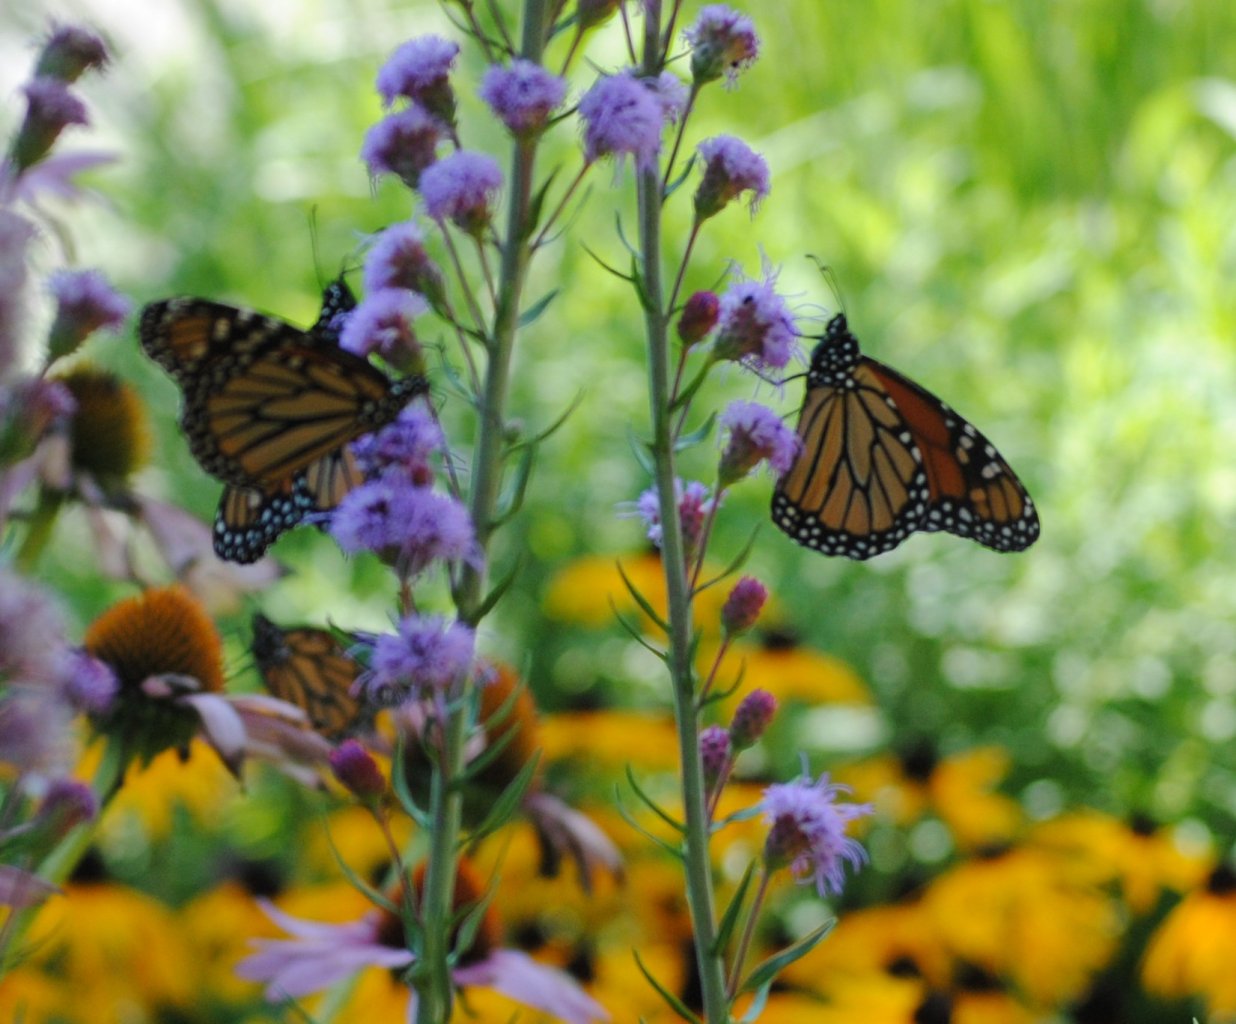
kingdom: Animalia
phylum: Arthropoda
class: Insecta
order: Lepidoptera
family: Nymphalidae
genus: Danaus
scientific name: Danaus plexippus
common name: Monarch
